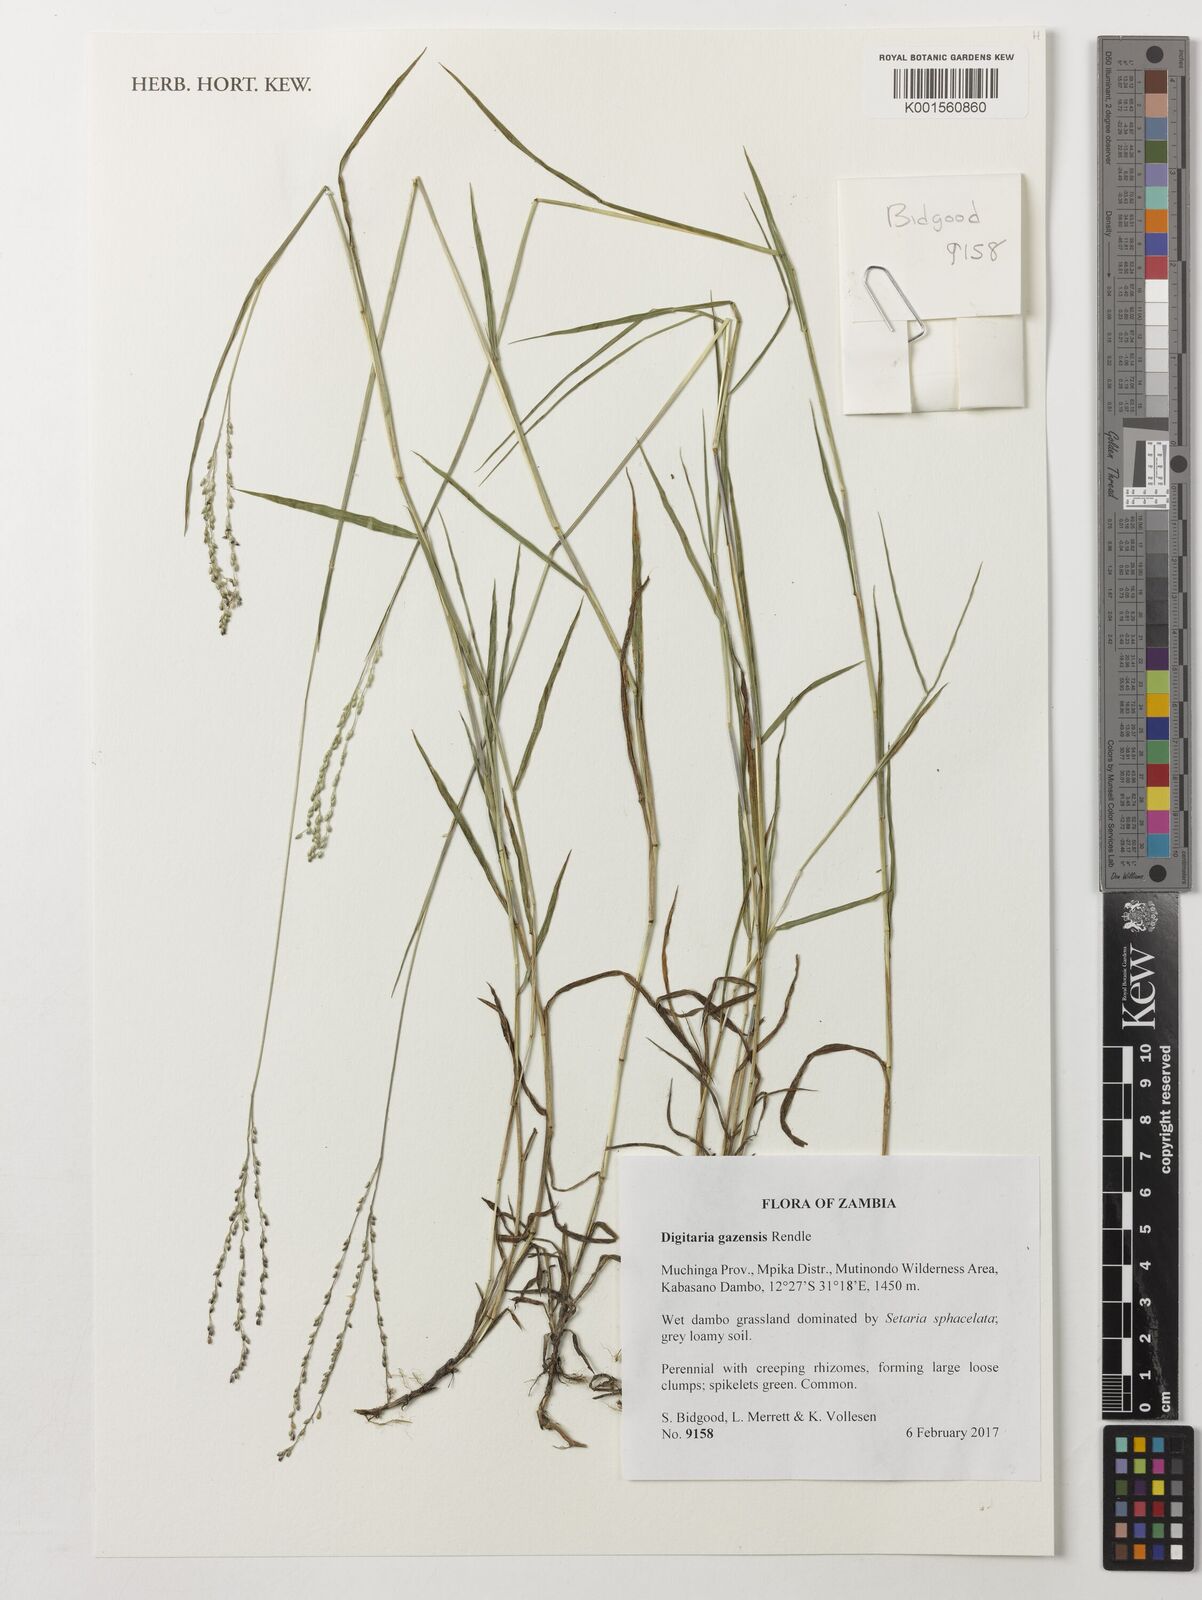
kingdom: Plantae
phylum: Tracheophyta
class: Liliopsida
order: Poales
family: Poaceae
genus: Digitaria
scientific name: Digitaria gazensis
